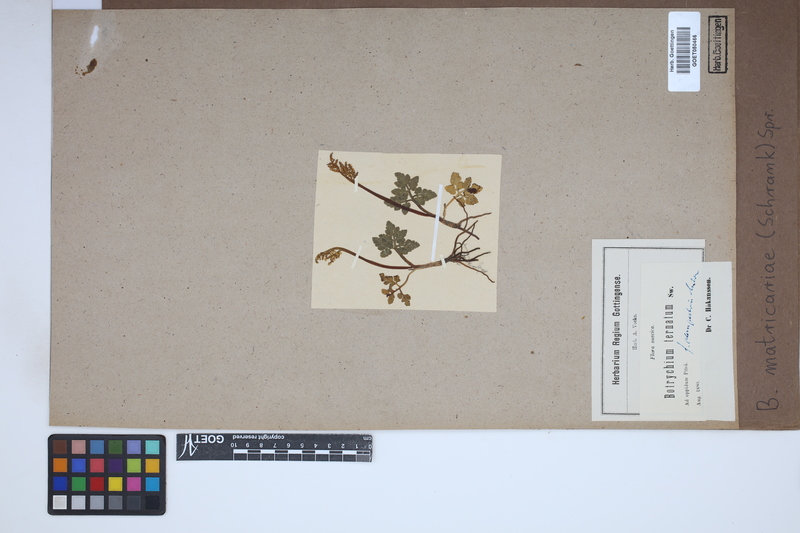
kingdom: Plantae
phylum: Tracheophyta
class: Polypodiopsida
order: Ophioglossales
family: Ophioglossaceae
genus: Sceptridium
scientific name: Sceptridium multifidum
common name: Leathery grape fern
